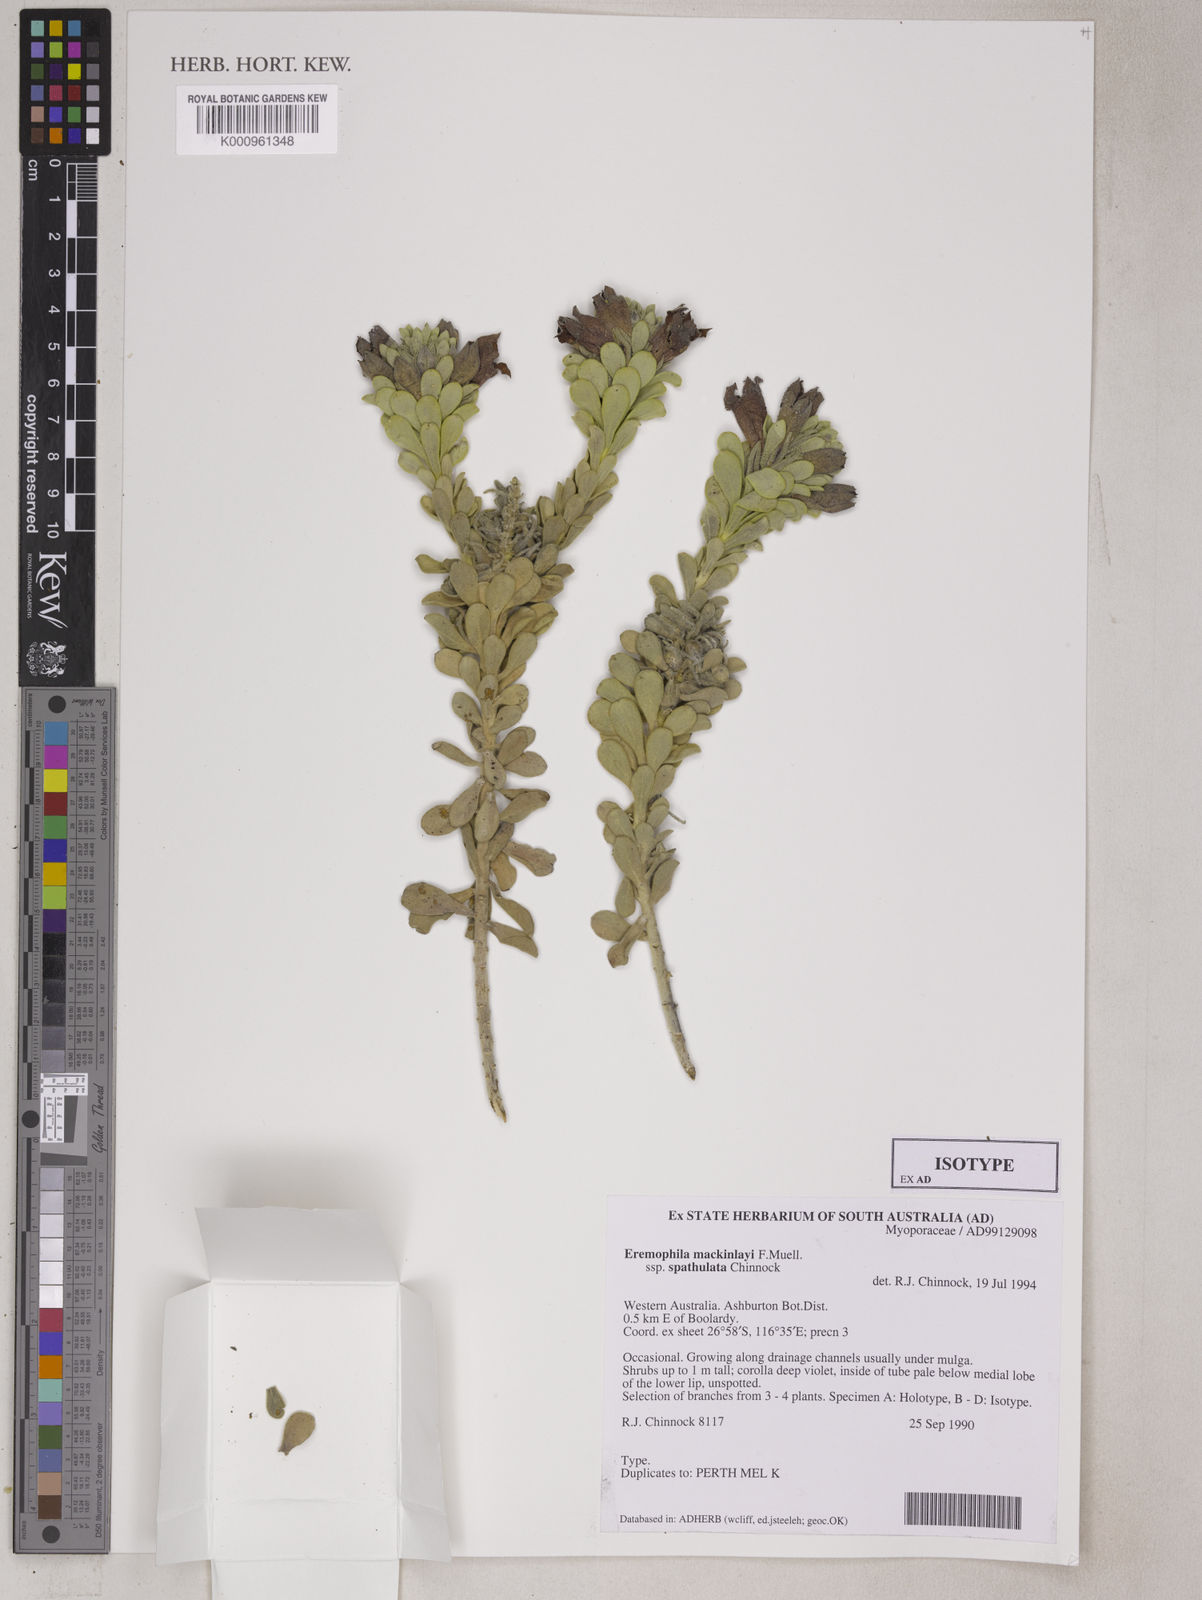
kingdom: Plantae
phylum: Tracheophyta
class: Magnoliopsida
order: Lamiales
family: Scrophulariaceae
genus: Eremophila
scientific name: Eremophila mackinlayi
